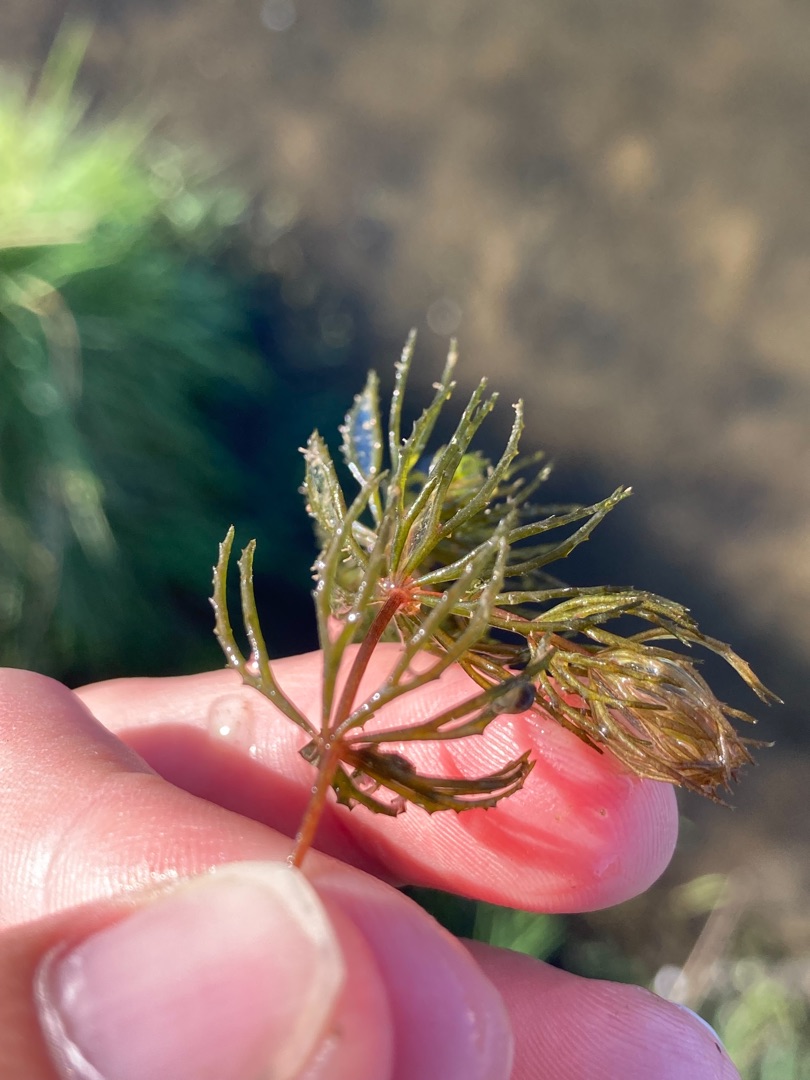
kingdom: Plantae
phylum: Tracheophyta
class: Magnoliopsida
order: Ceratophyllales
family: Ceratophyllaceae
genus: Ceratophyllum
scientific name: Ceratophyllum demersum
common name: Tornfrøet hornblad
